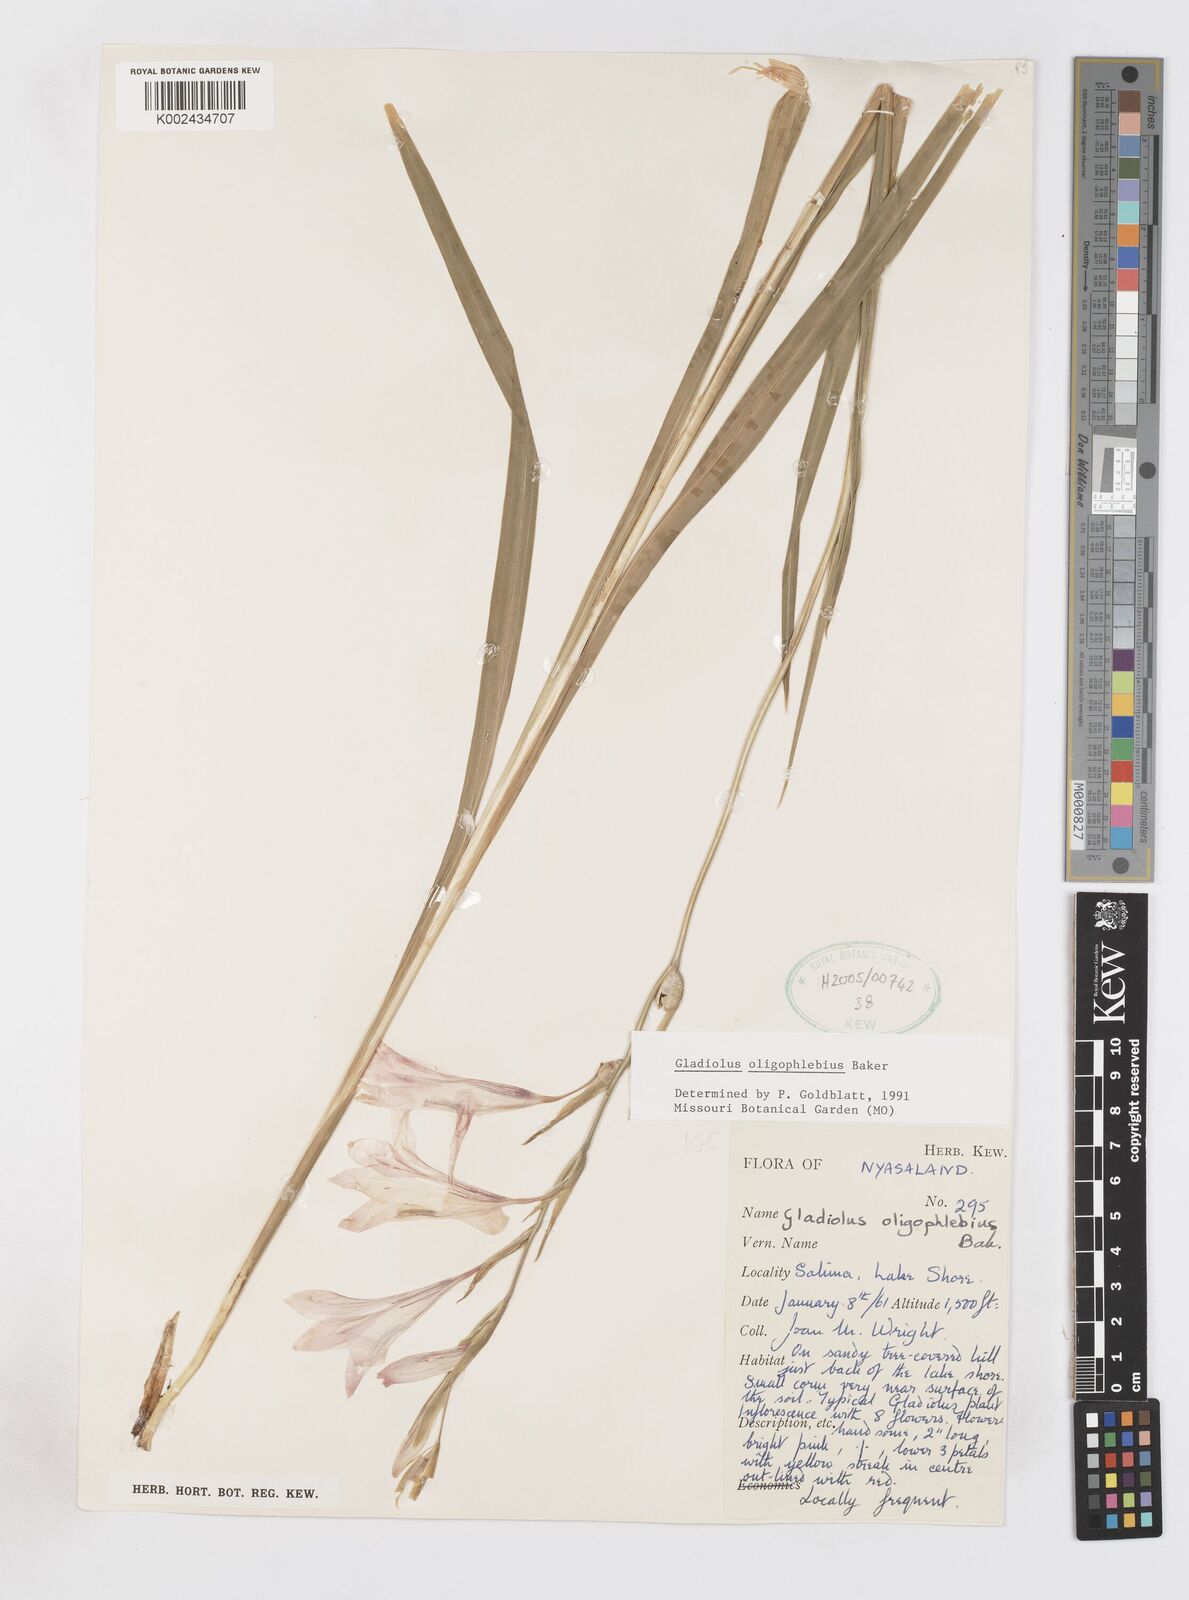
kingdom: Plantae
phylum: Tracheophyta
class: Liliopsida
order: Asparagales
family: Iridaceae
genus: Gladiolus
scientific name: Gladiolus oligophlebius
